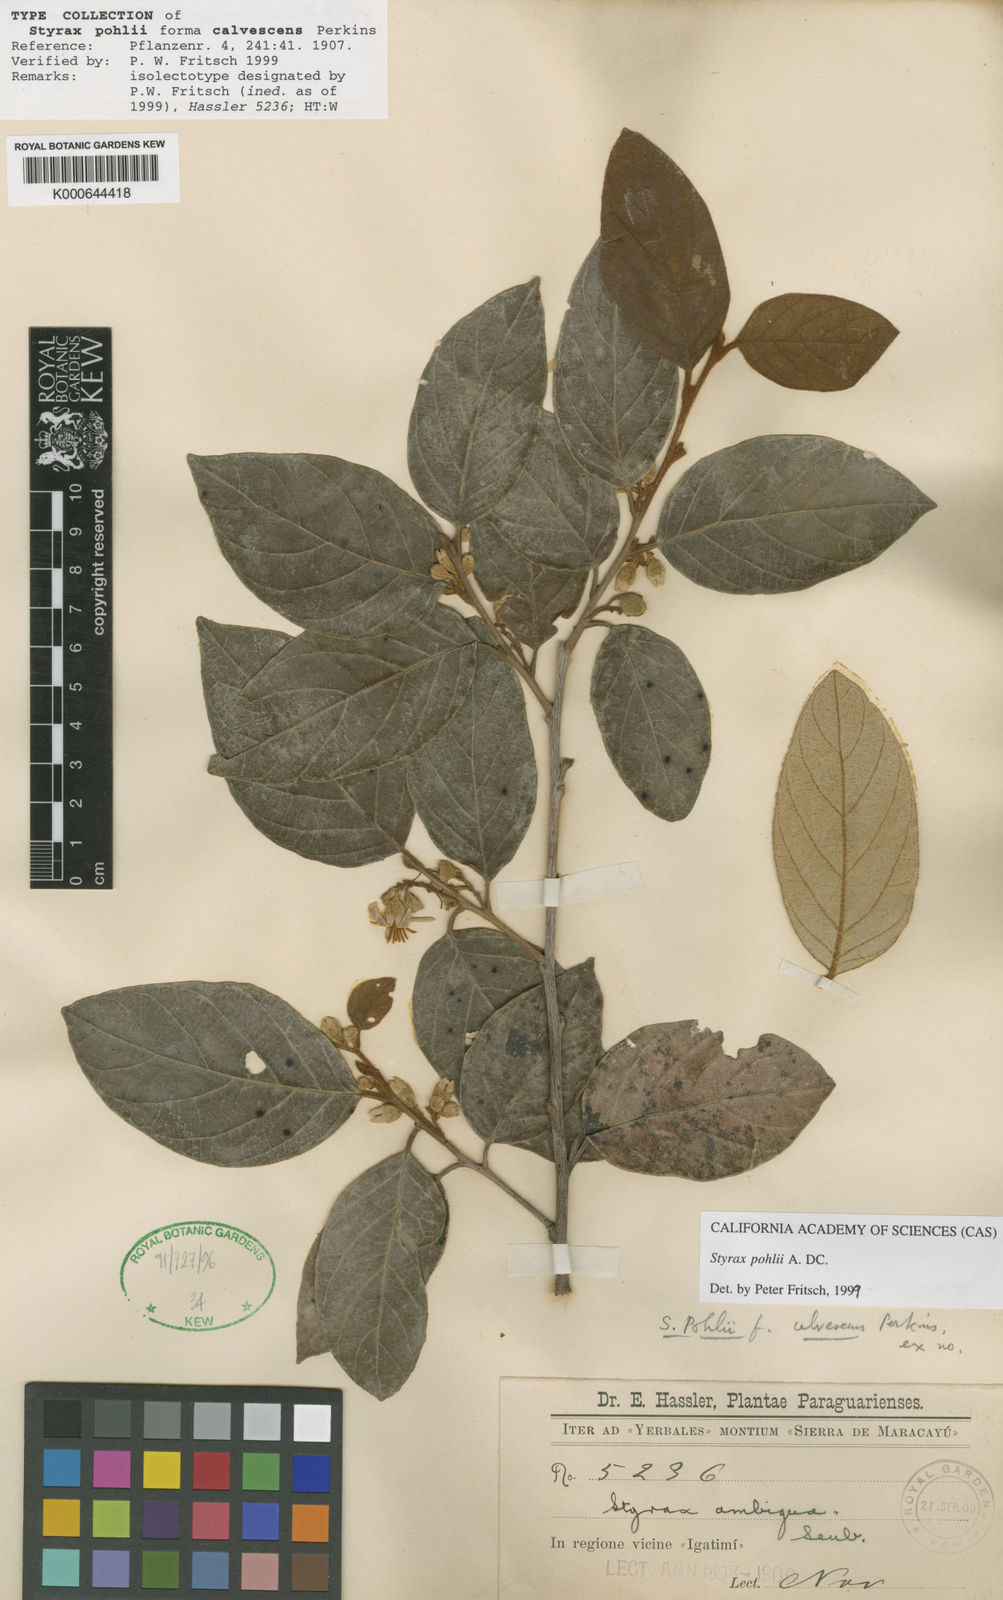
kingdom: Plantae
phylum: Tracheophyta
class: Magnoliopsida
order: Ericales
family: Styracaceae
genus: Styrax
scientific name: Styrax pohlii
